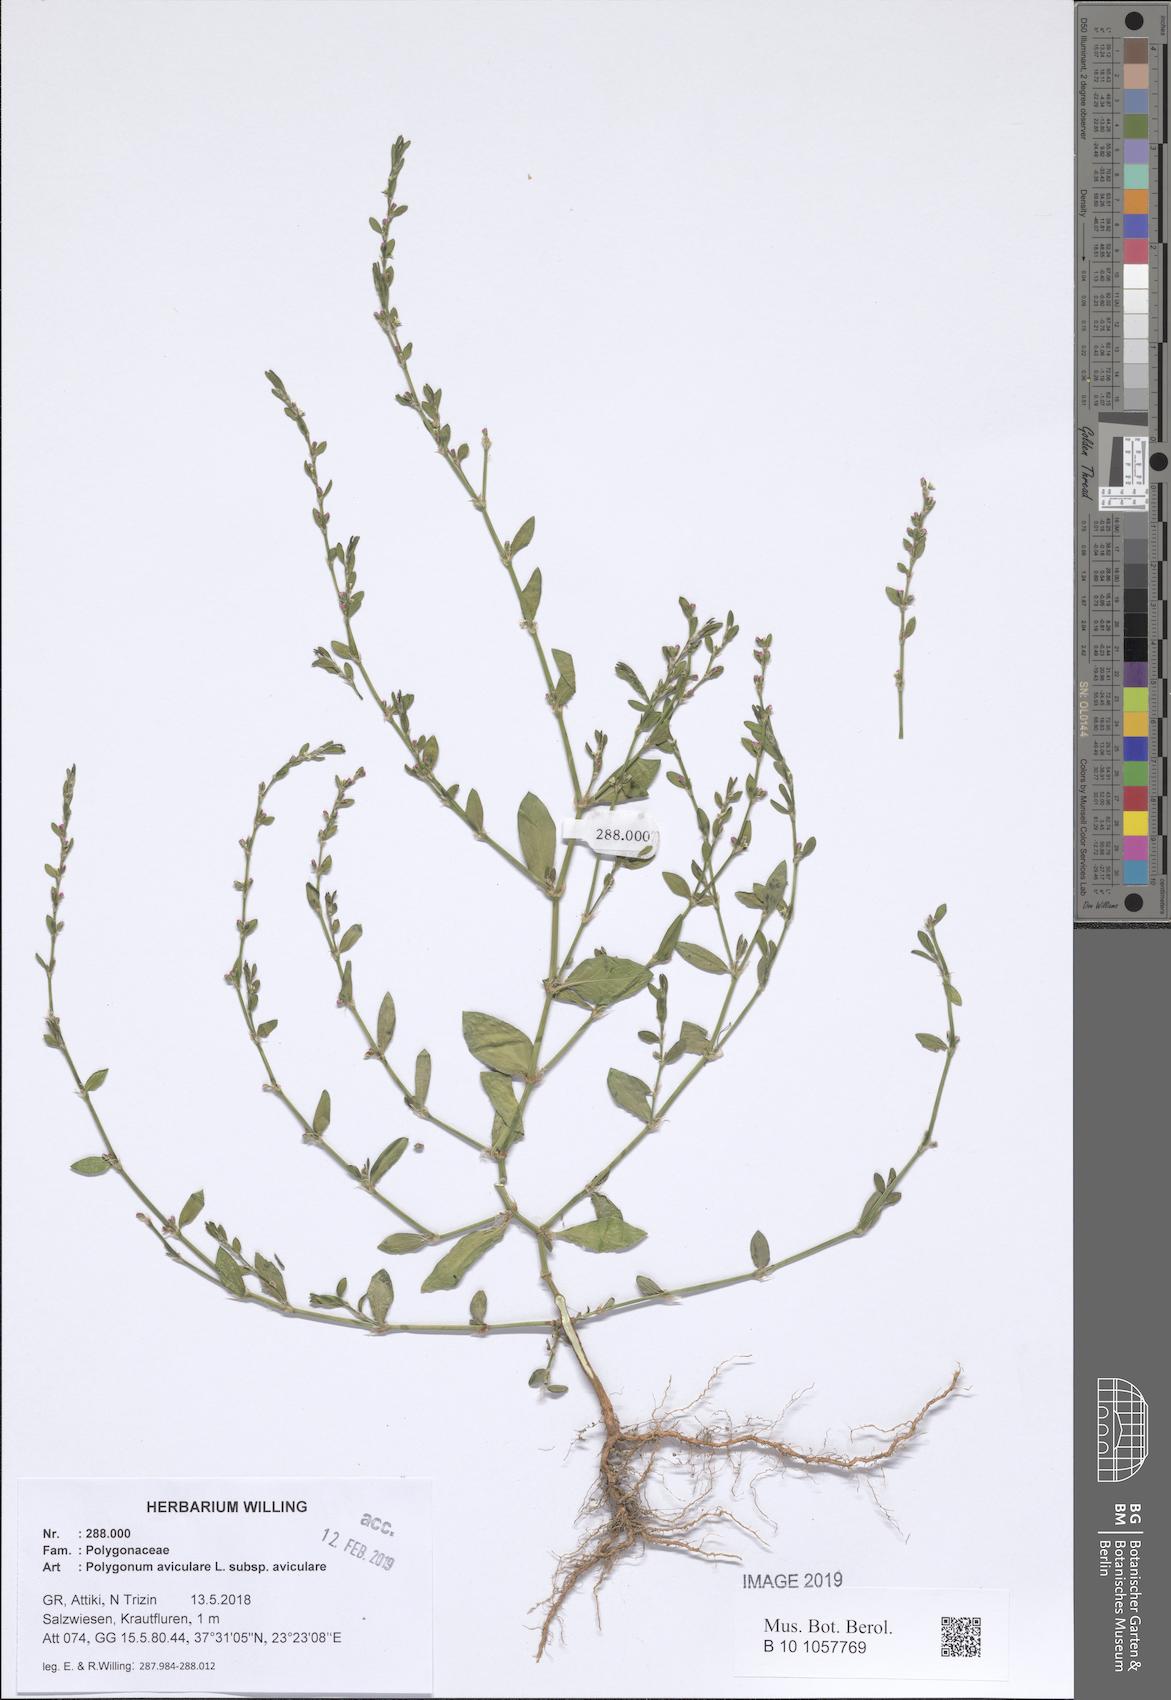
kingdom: Plantae
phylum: Tracheophyta
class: Magnoliopsida
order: Caryophyllales
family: Polygonaceae
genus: Polygonum
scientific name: Polygonum aviculare
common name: Prostrate knotweed
